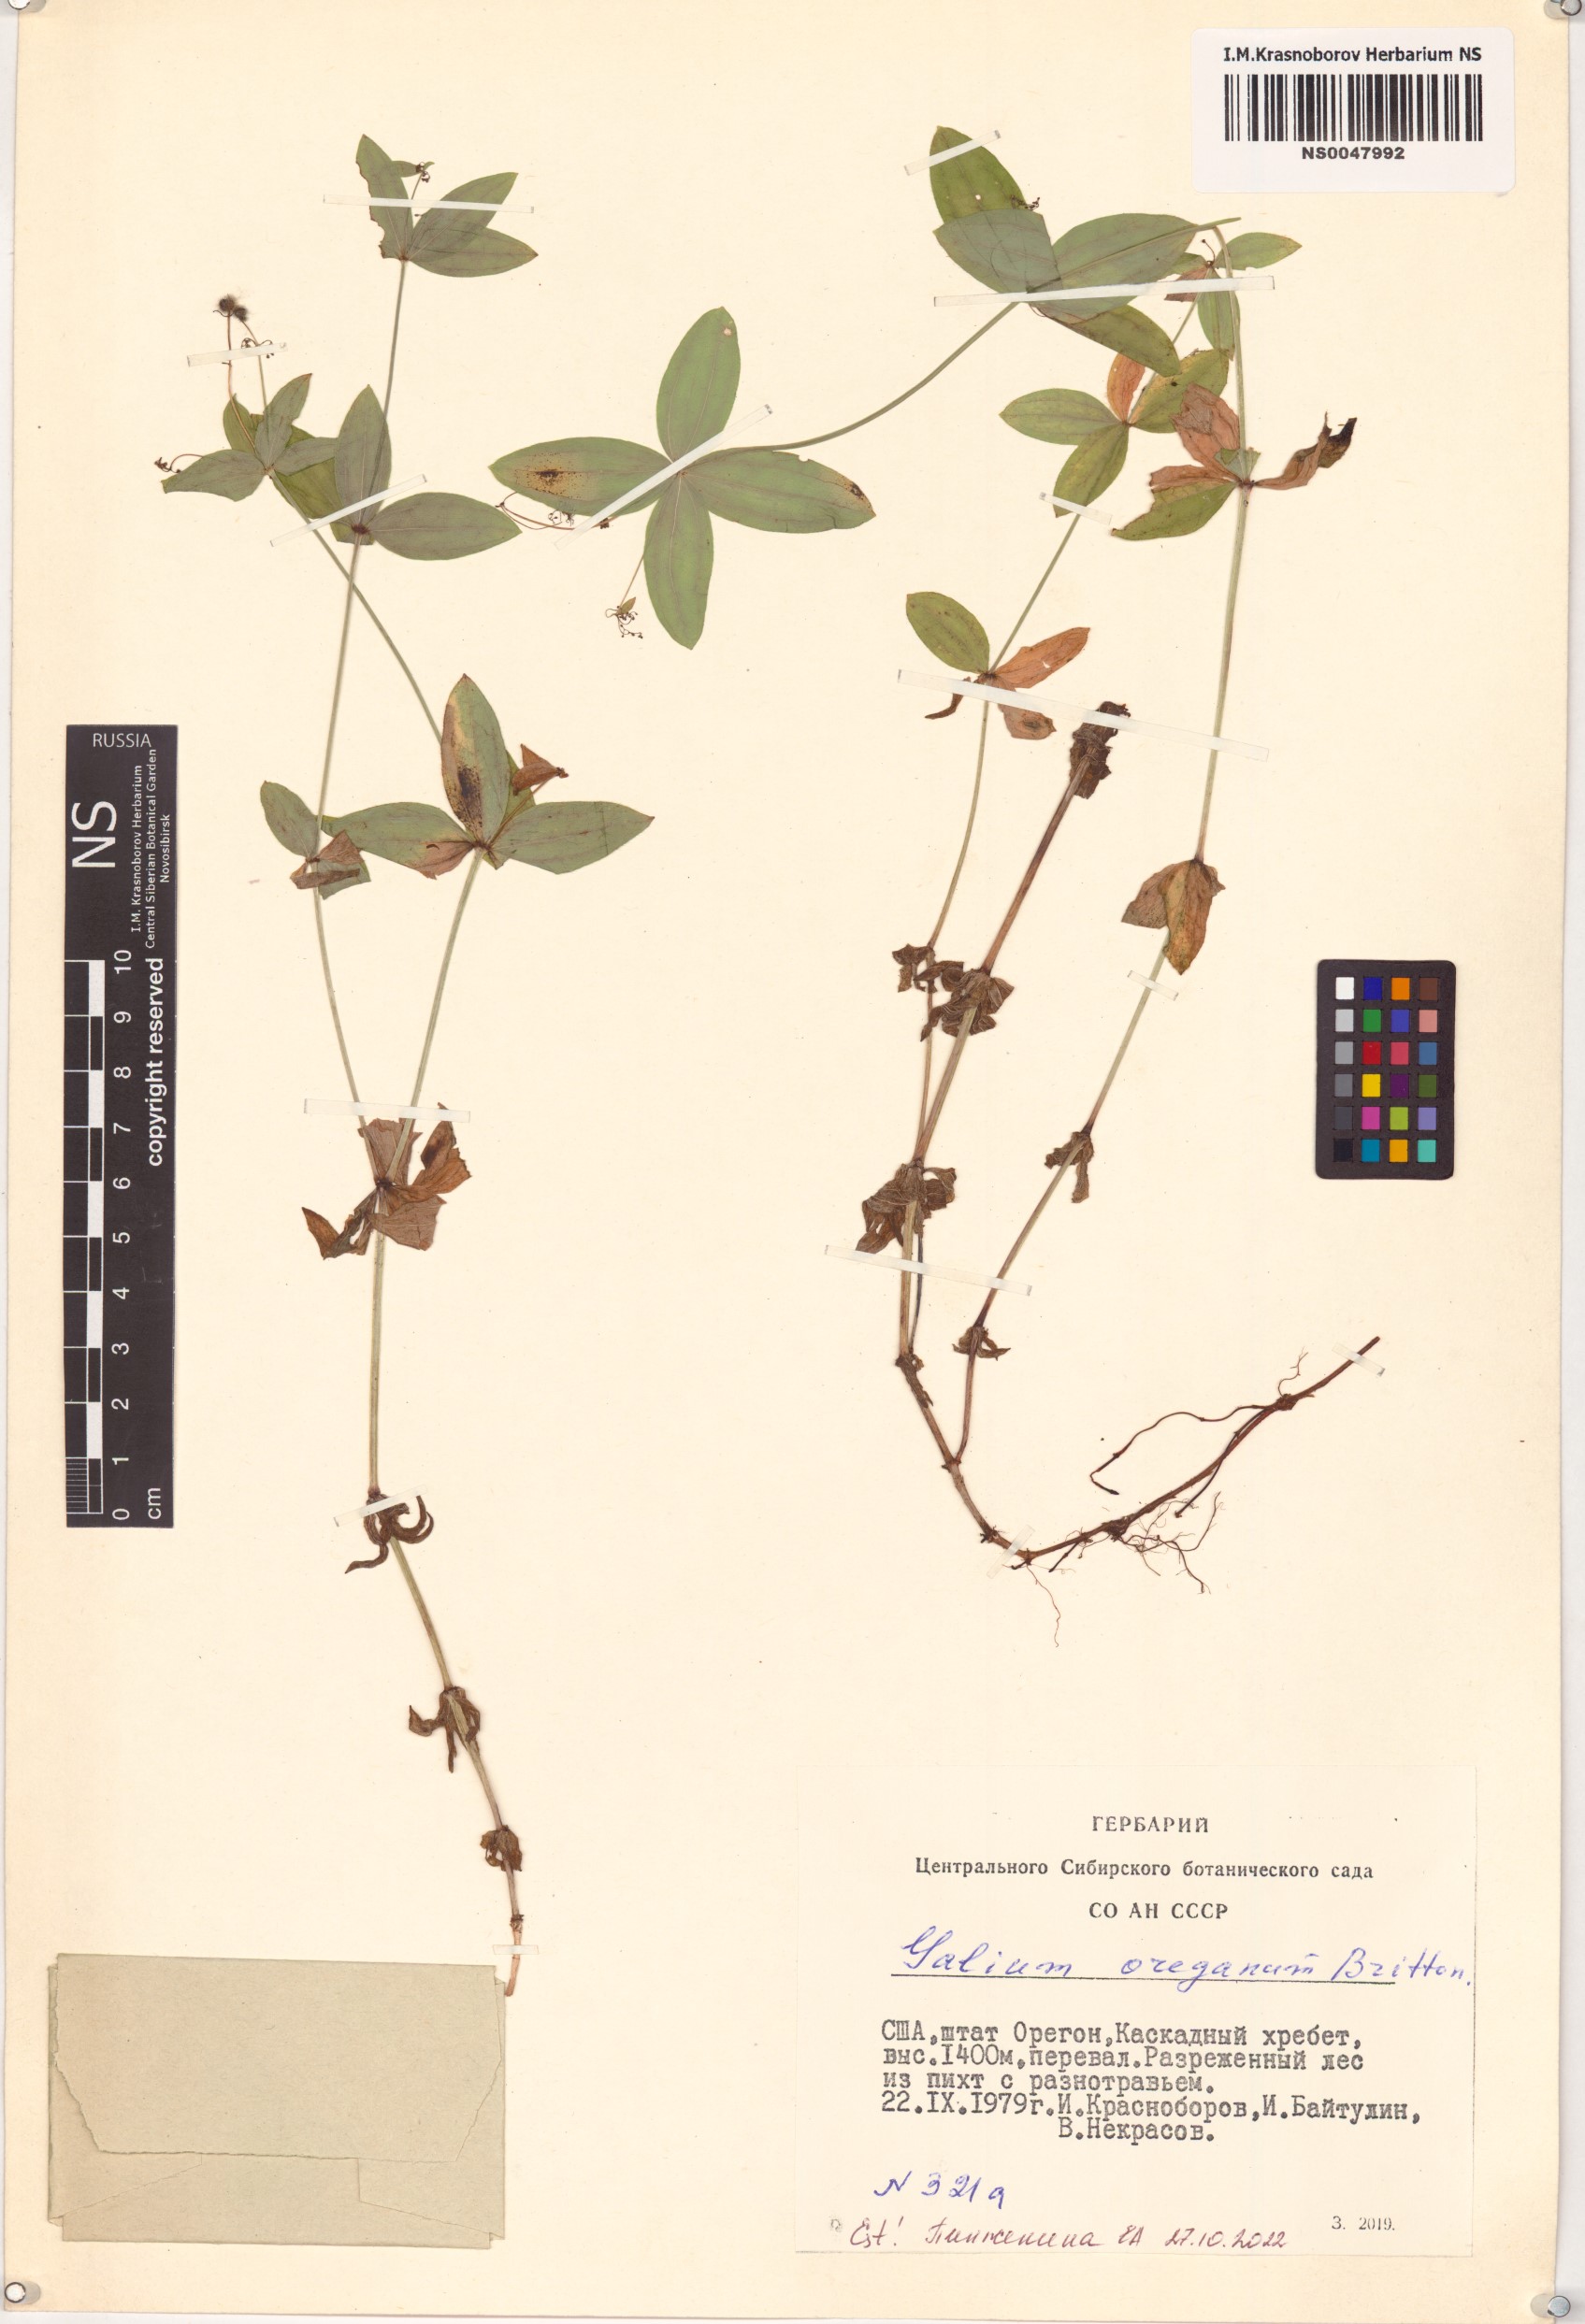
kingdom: Plantae
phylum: Tracheophyta
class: Magnoliopsida
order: Gentianales
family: Rubiaceae
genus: Galium
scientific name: Galium oreganum
